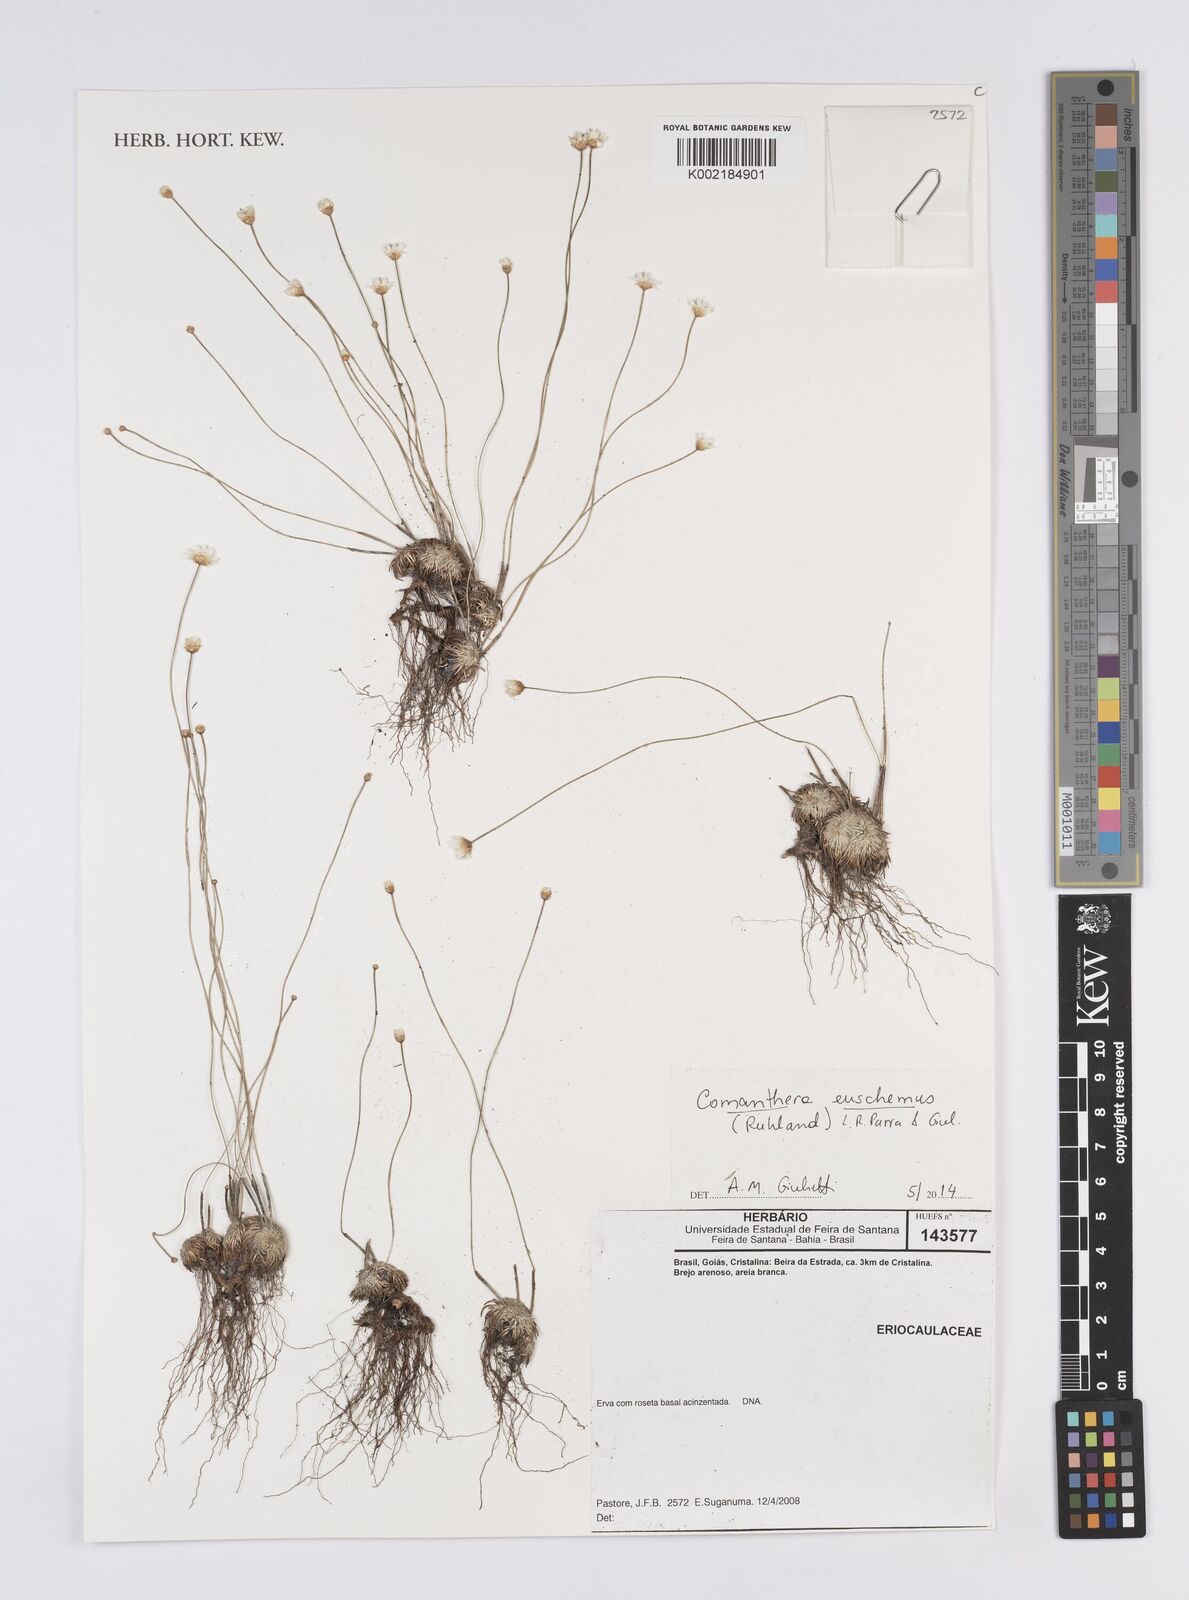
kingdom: Plantae
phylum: Tracheophyta
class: Liliopsida
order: Poales
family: Eriocaulaceae
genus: Comanthera
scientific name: Comanthera euschemus
